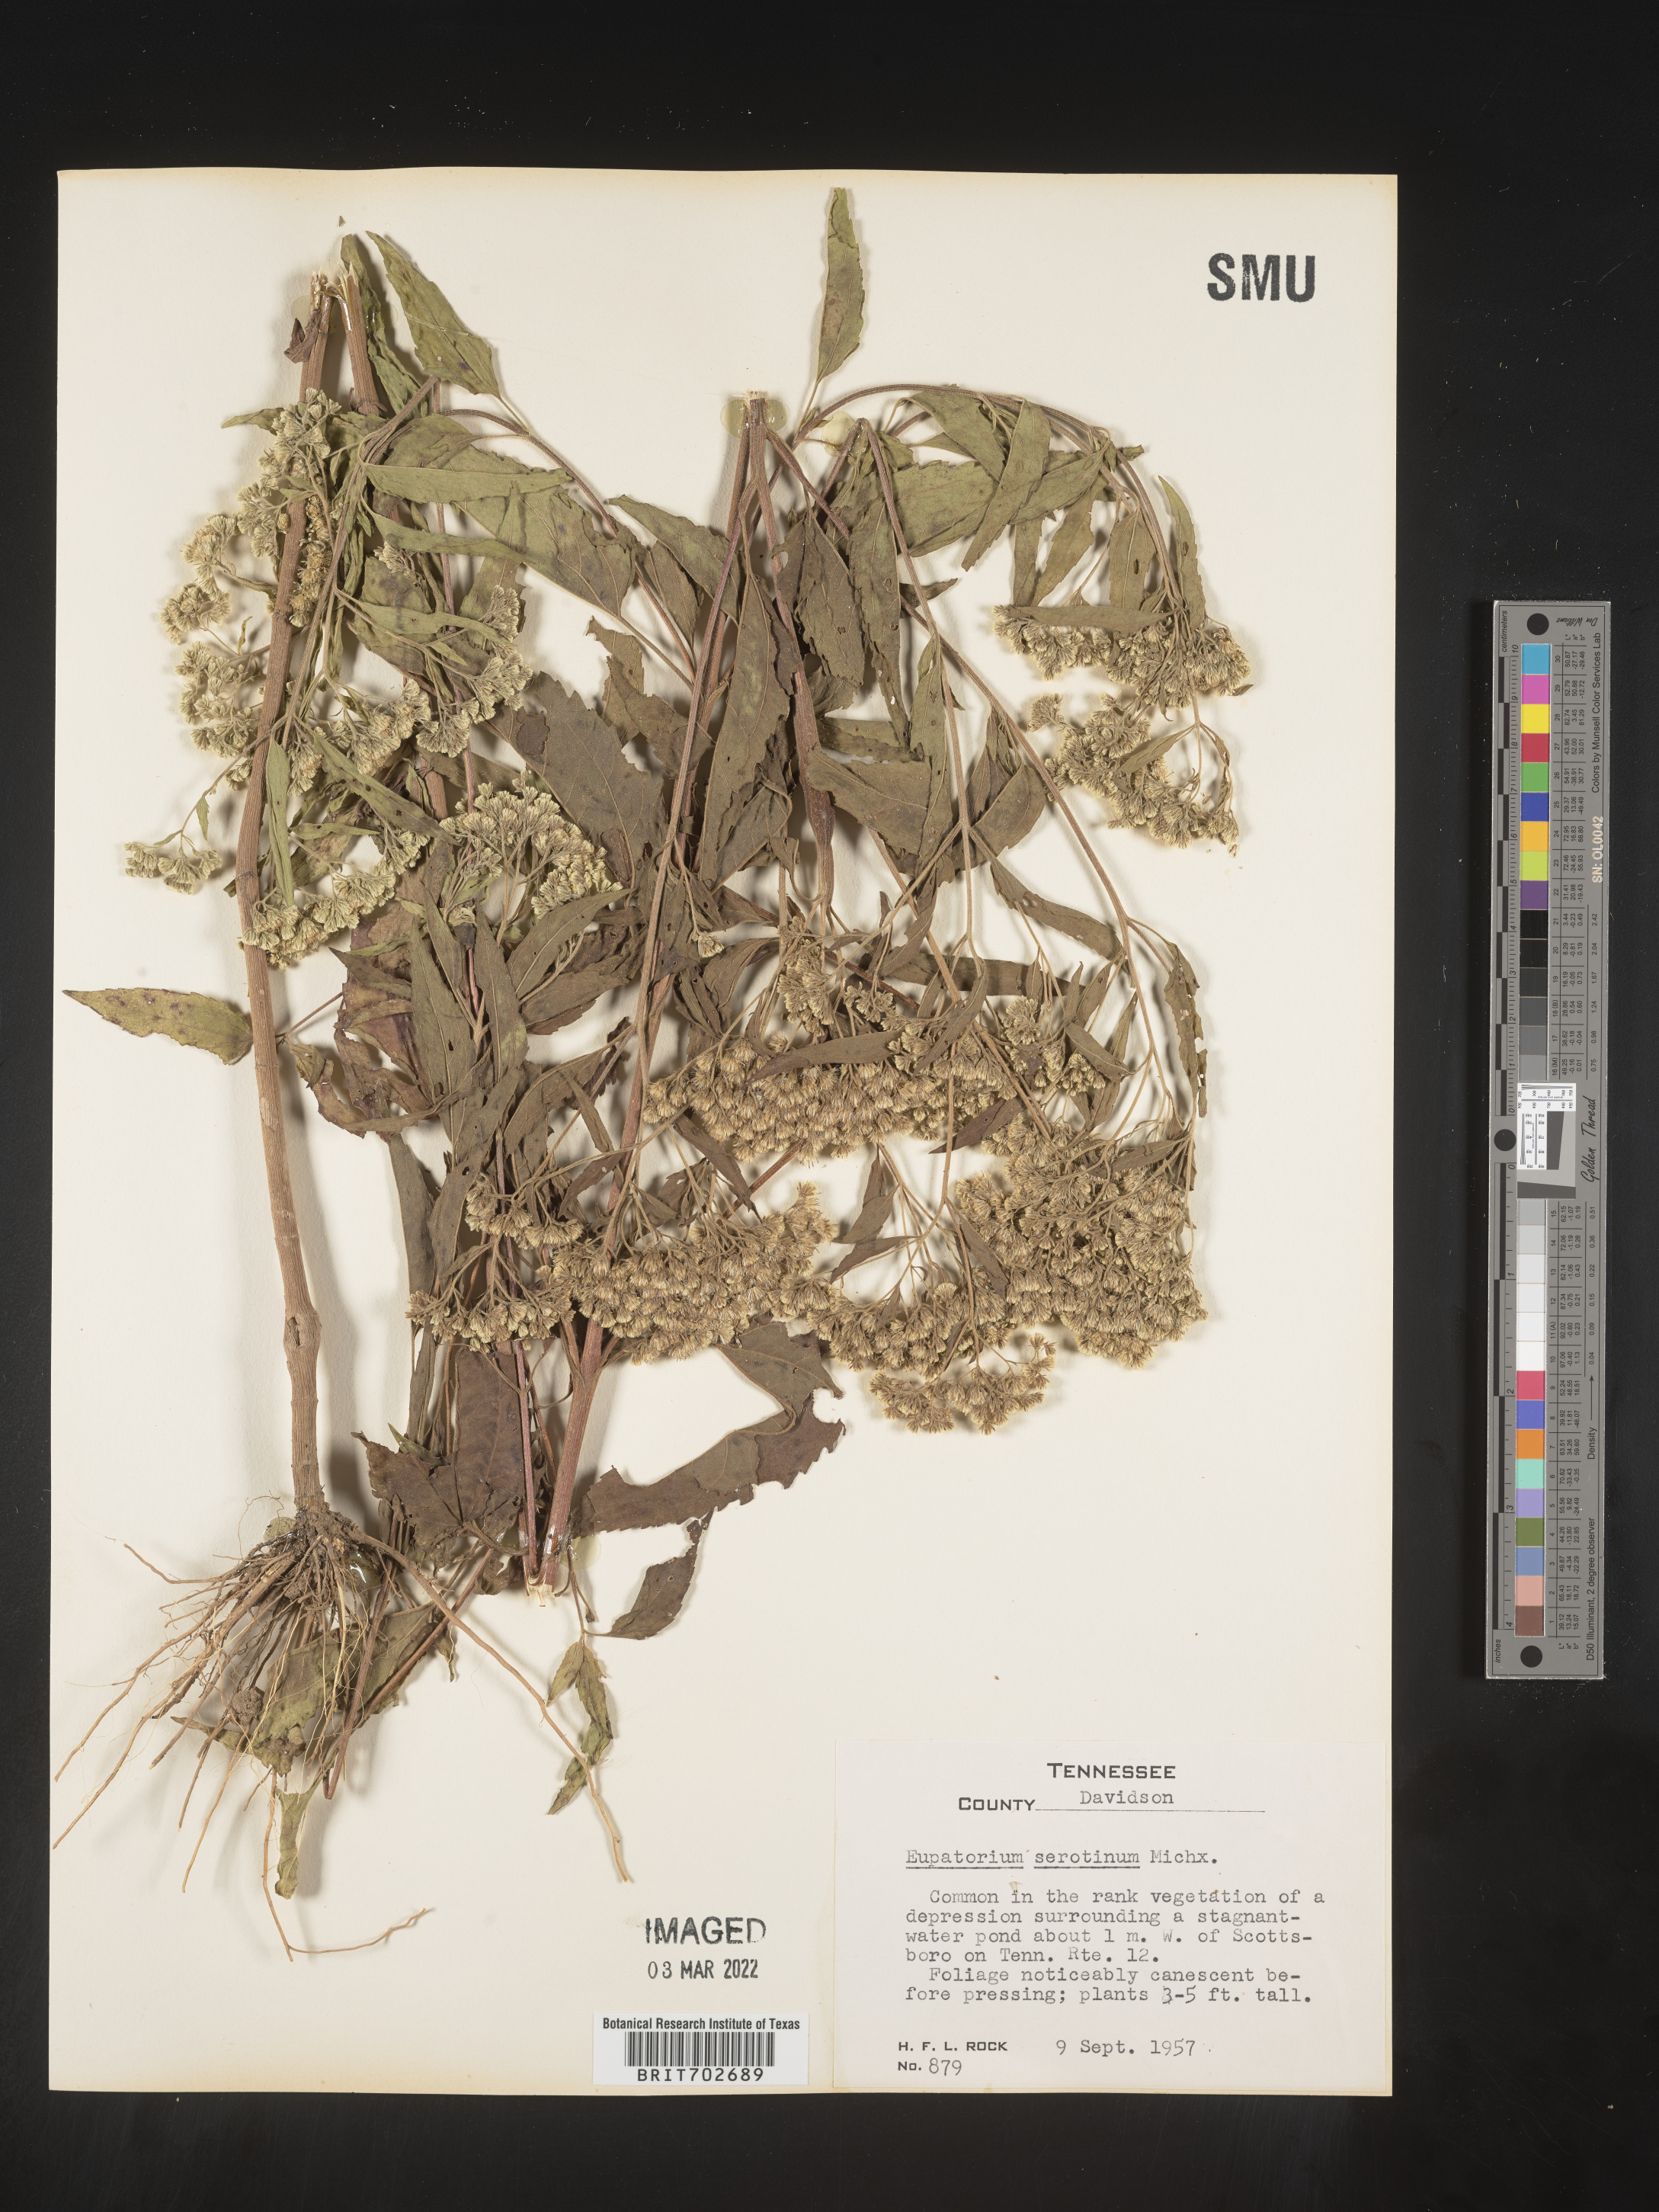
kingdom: Plantae
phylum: Tracheophyta
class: Magnoliopsida
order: Asterales
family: Asteraceae
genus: Eupatorium
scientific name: Eupatorium serotinum
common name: Late boneset
